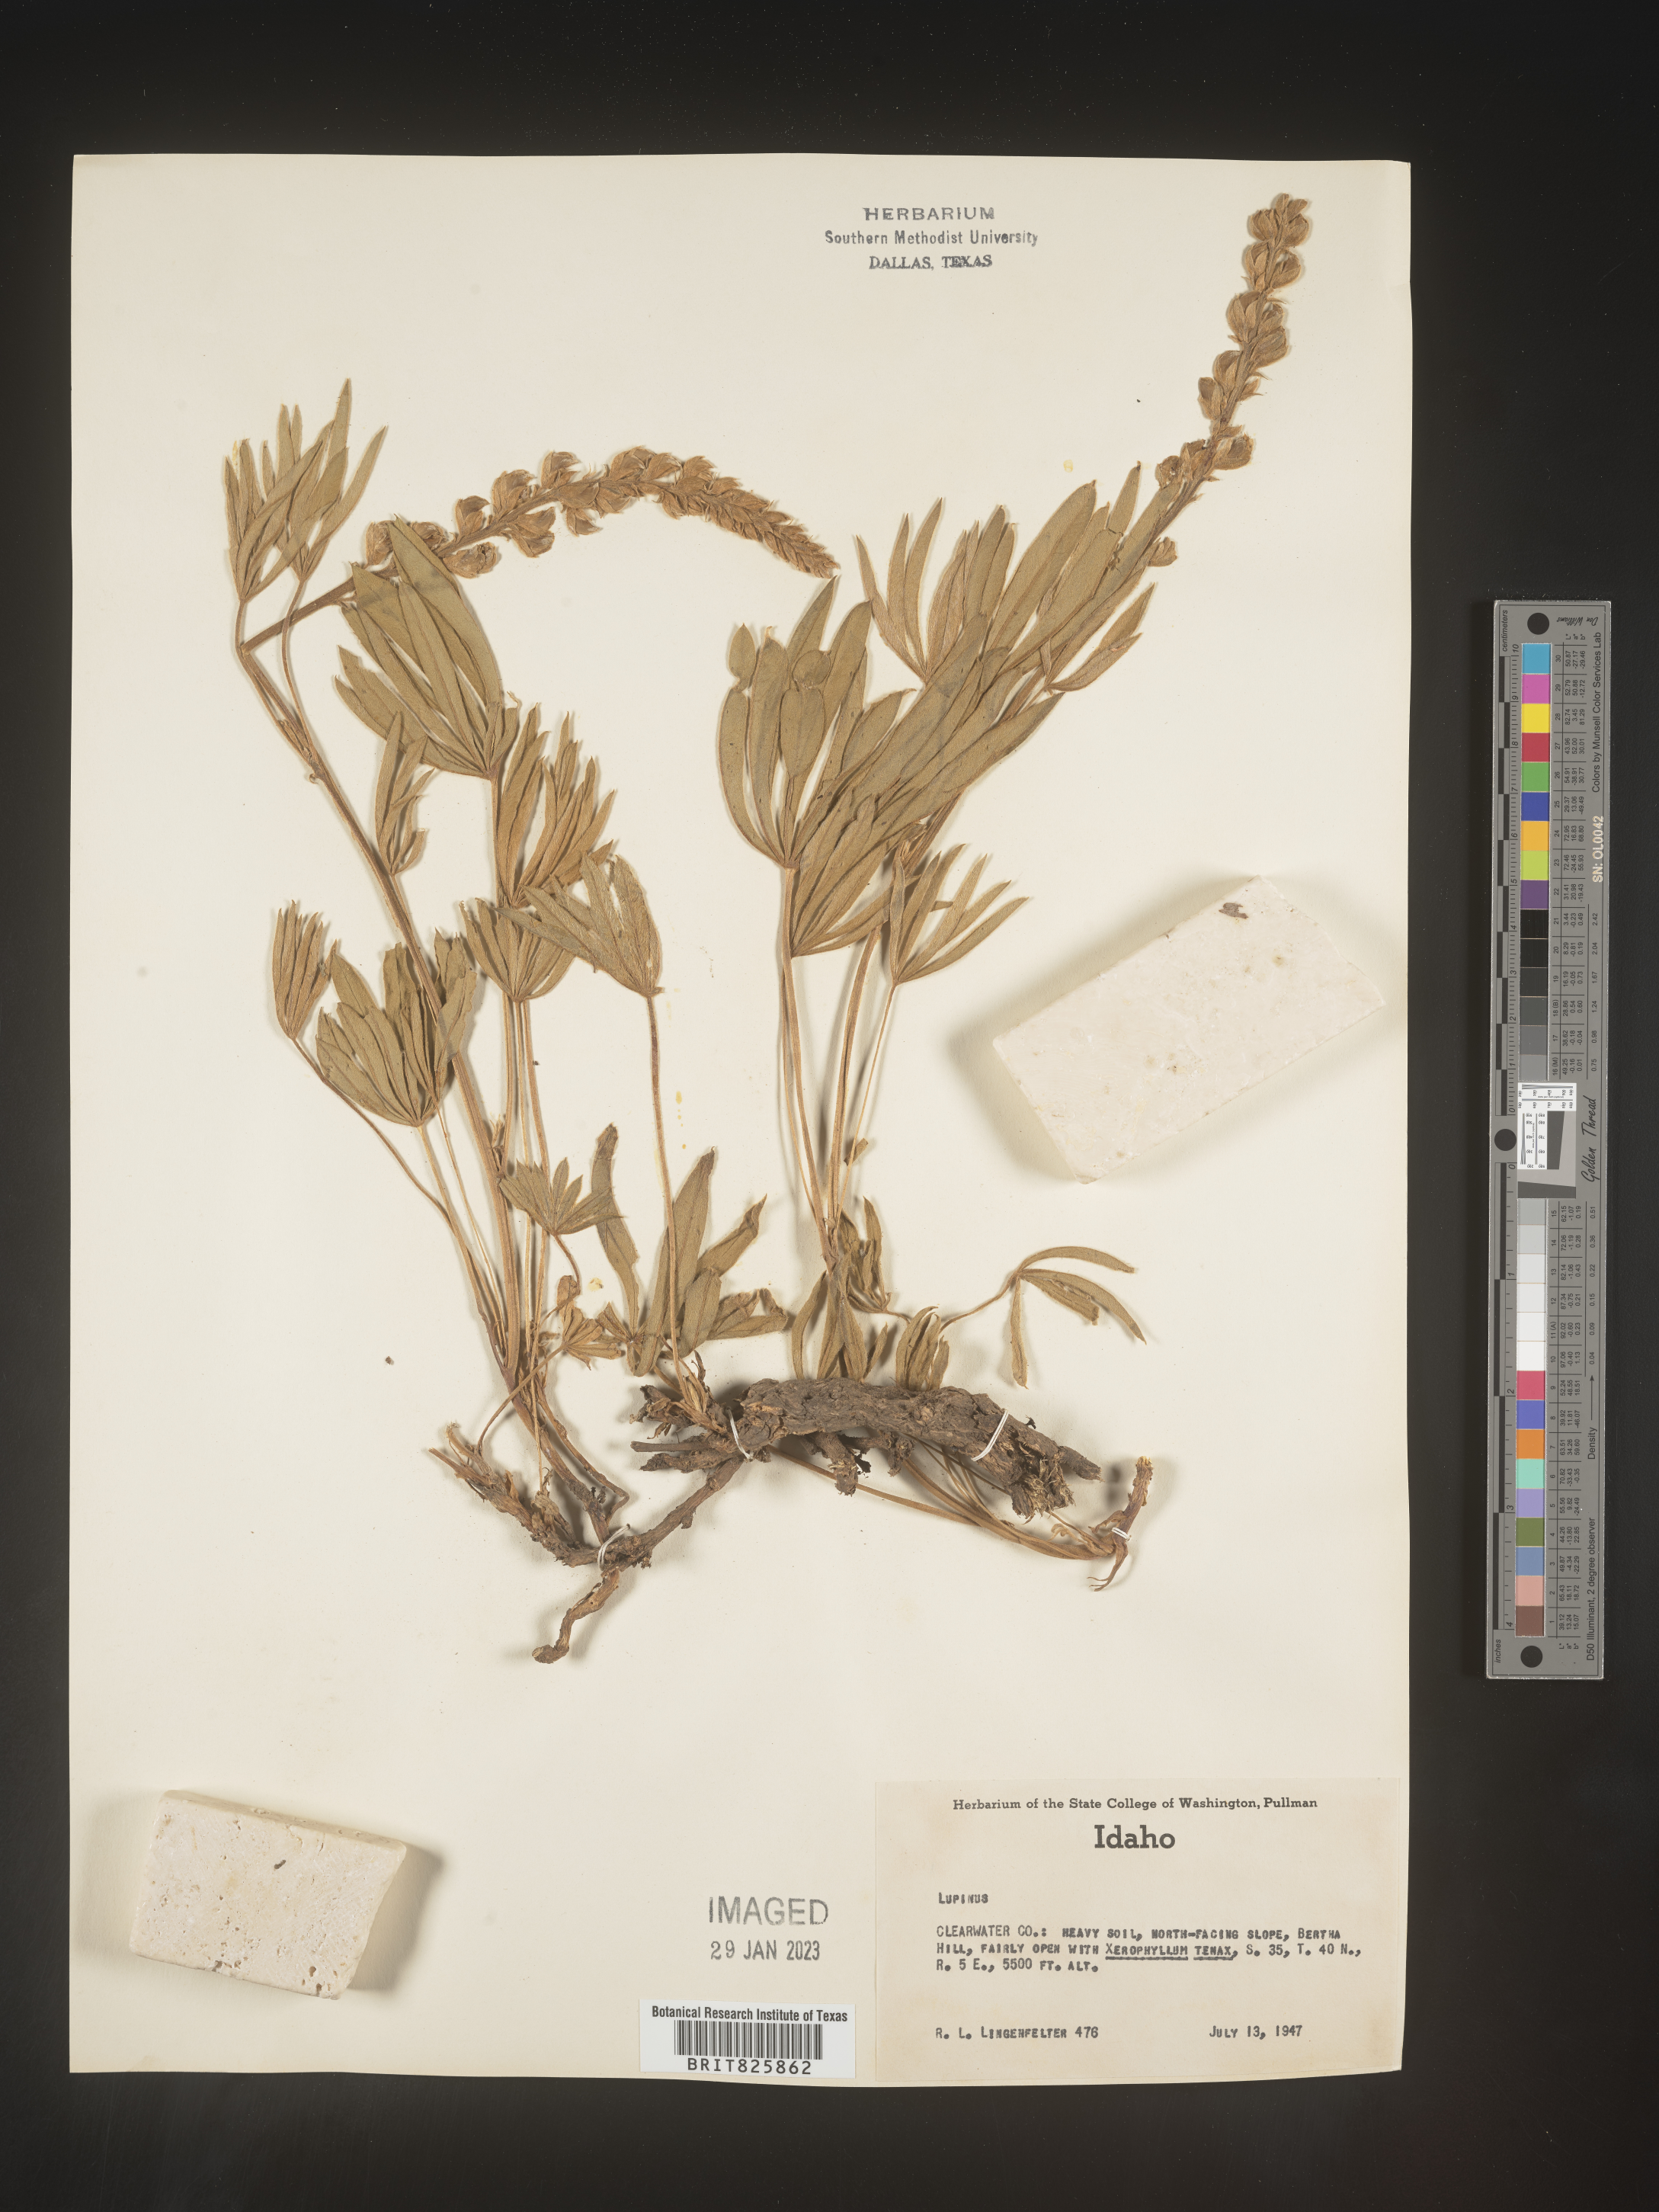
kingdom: Plantae
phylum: Tracheophyta
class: Magnoliopsida
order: Fabales
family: Fabaceae
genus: Lupinus
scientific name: Lupinus
